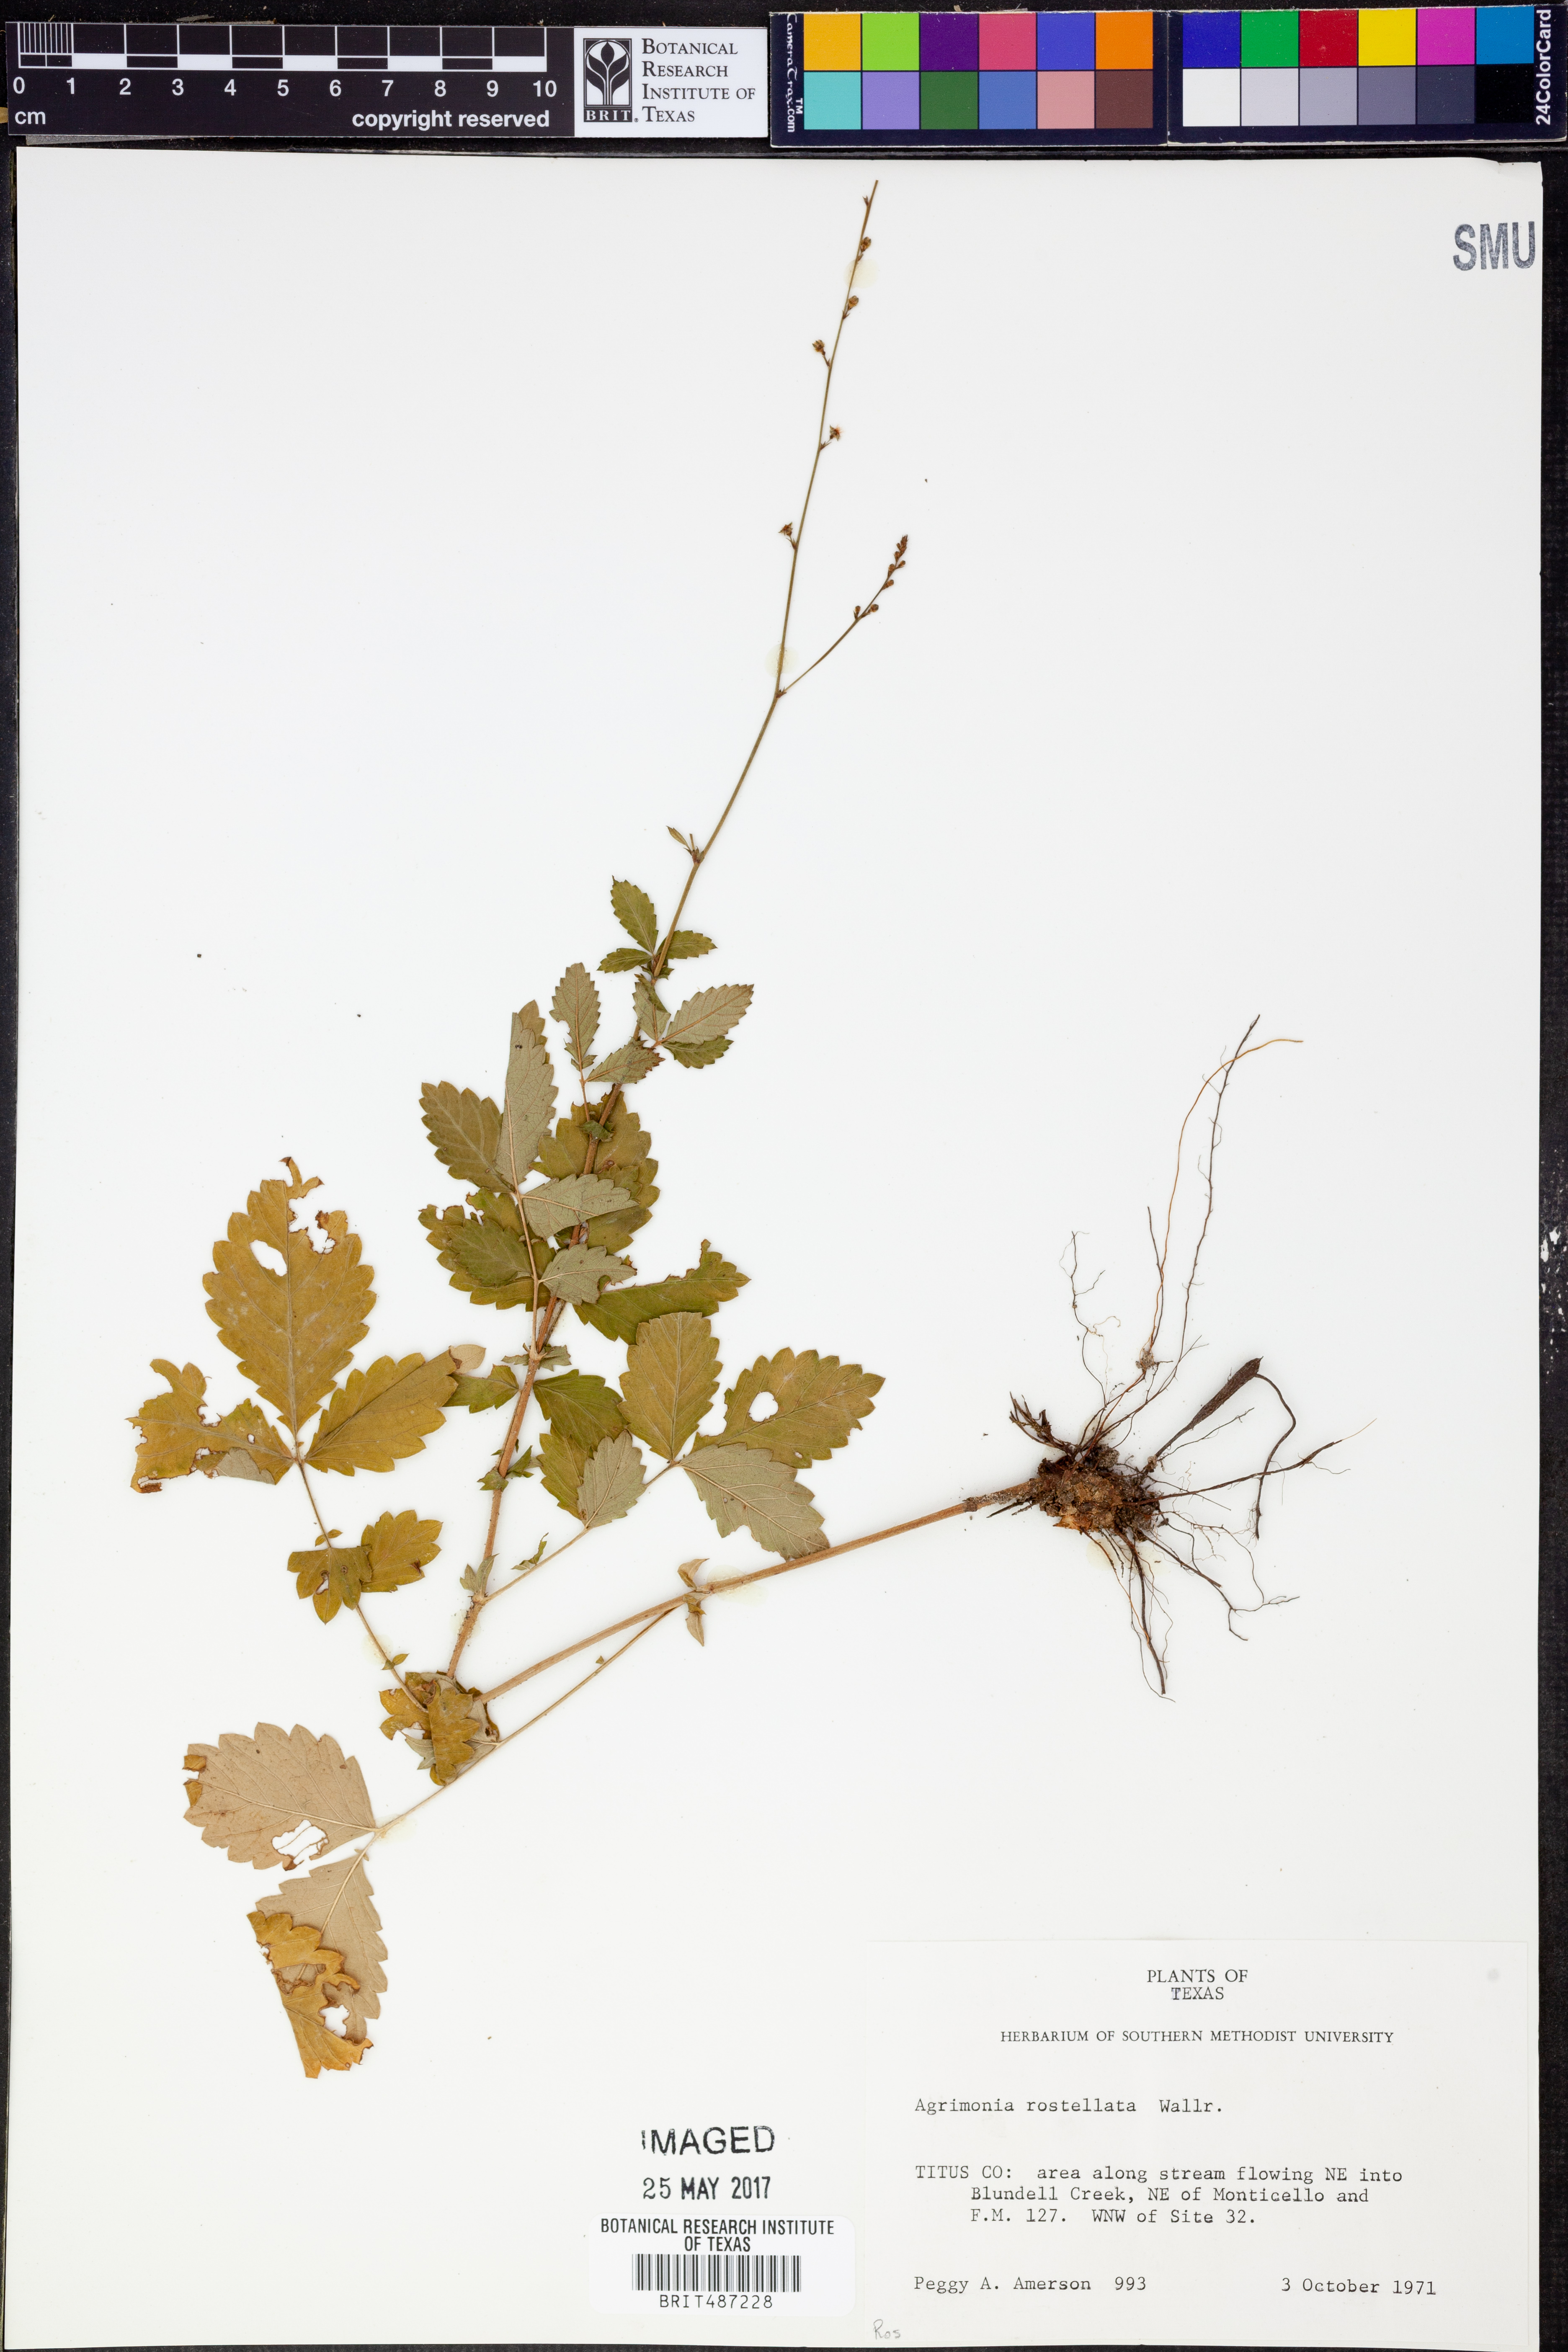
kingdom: Plantae
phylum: Tracheophyta
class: Magnoliopsida
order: Rosales
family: Rosaceae
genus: Agrimonia
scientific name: Agrimonia rostellata
